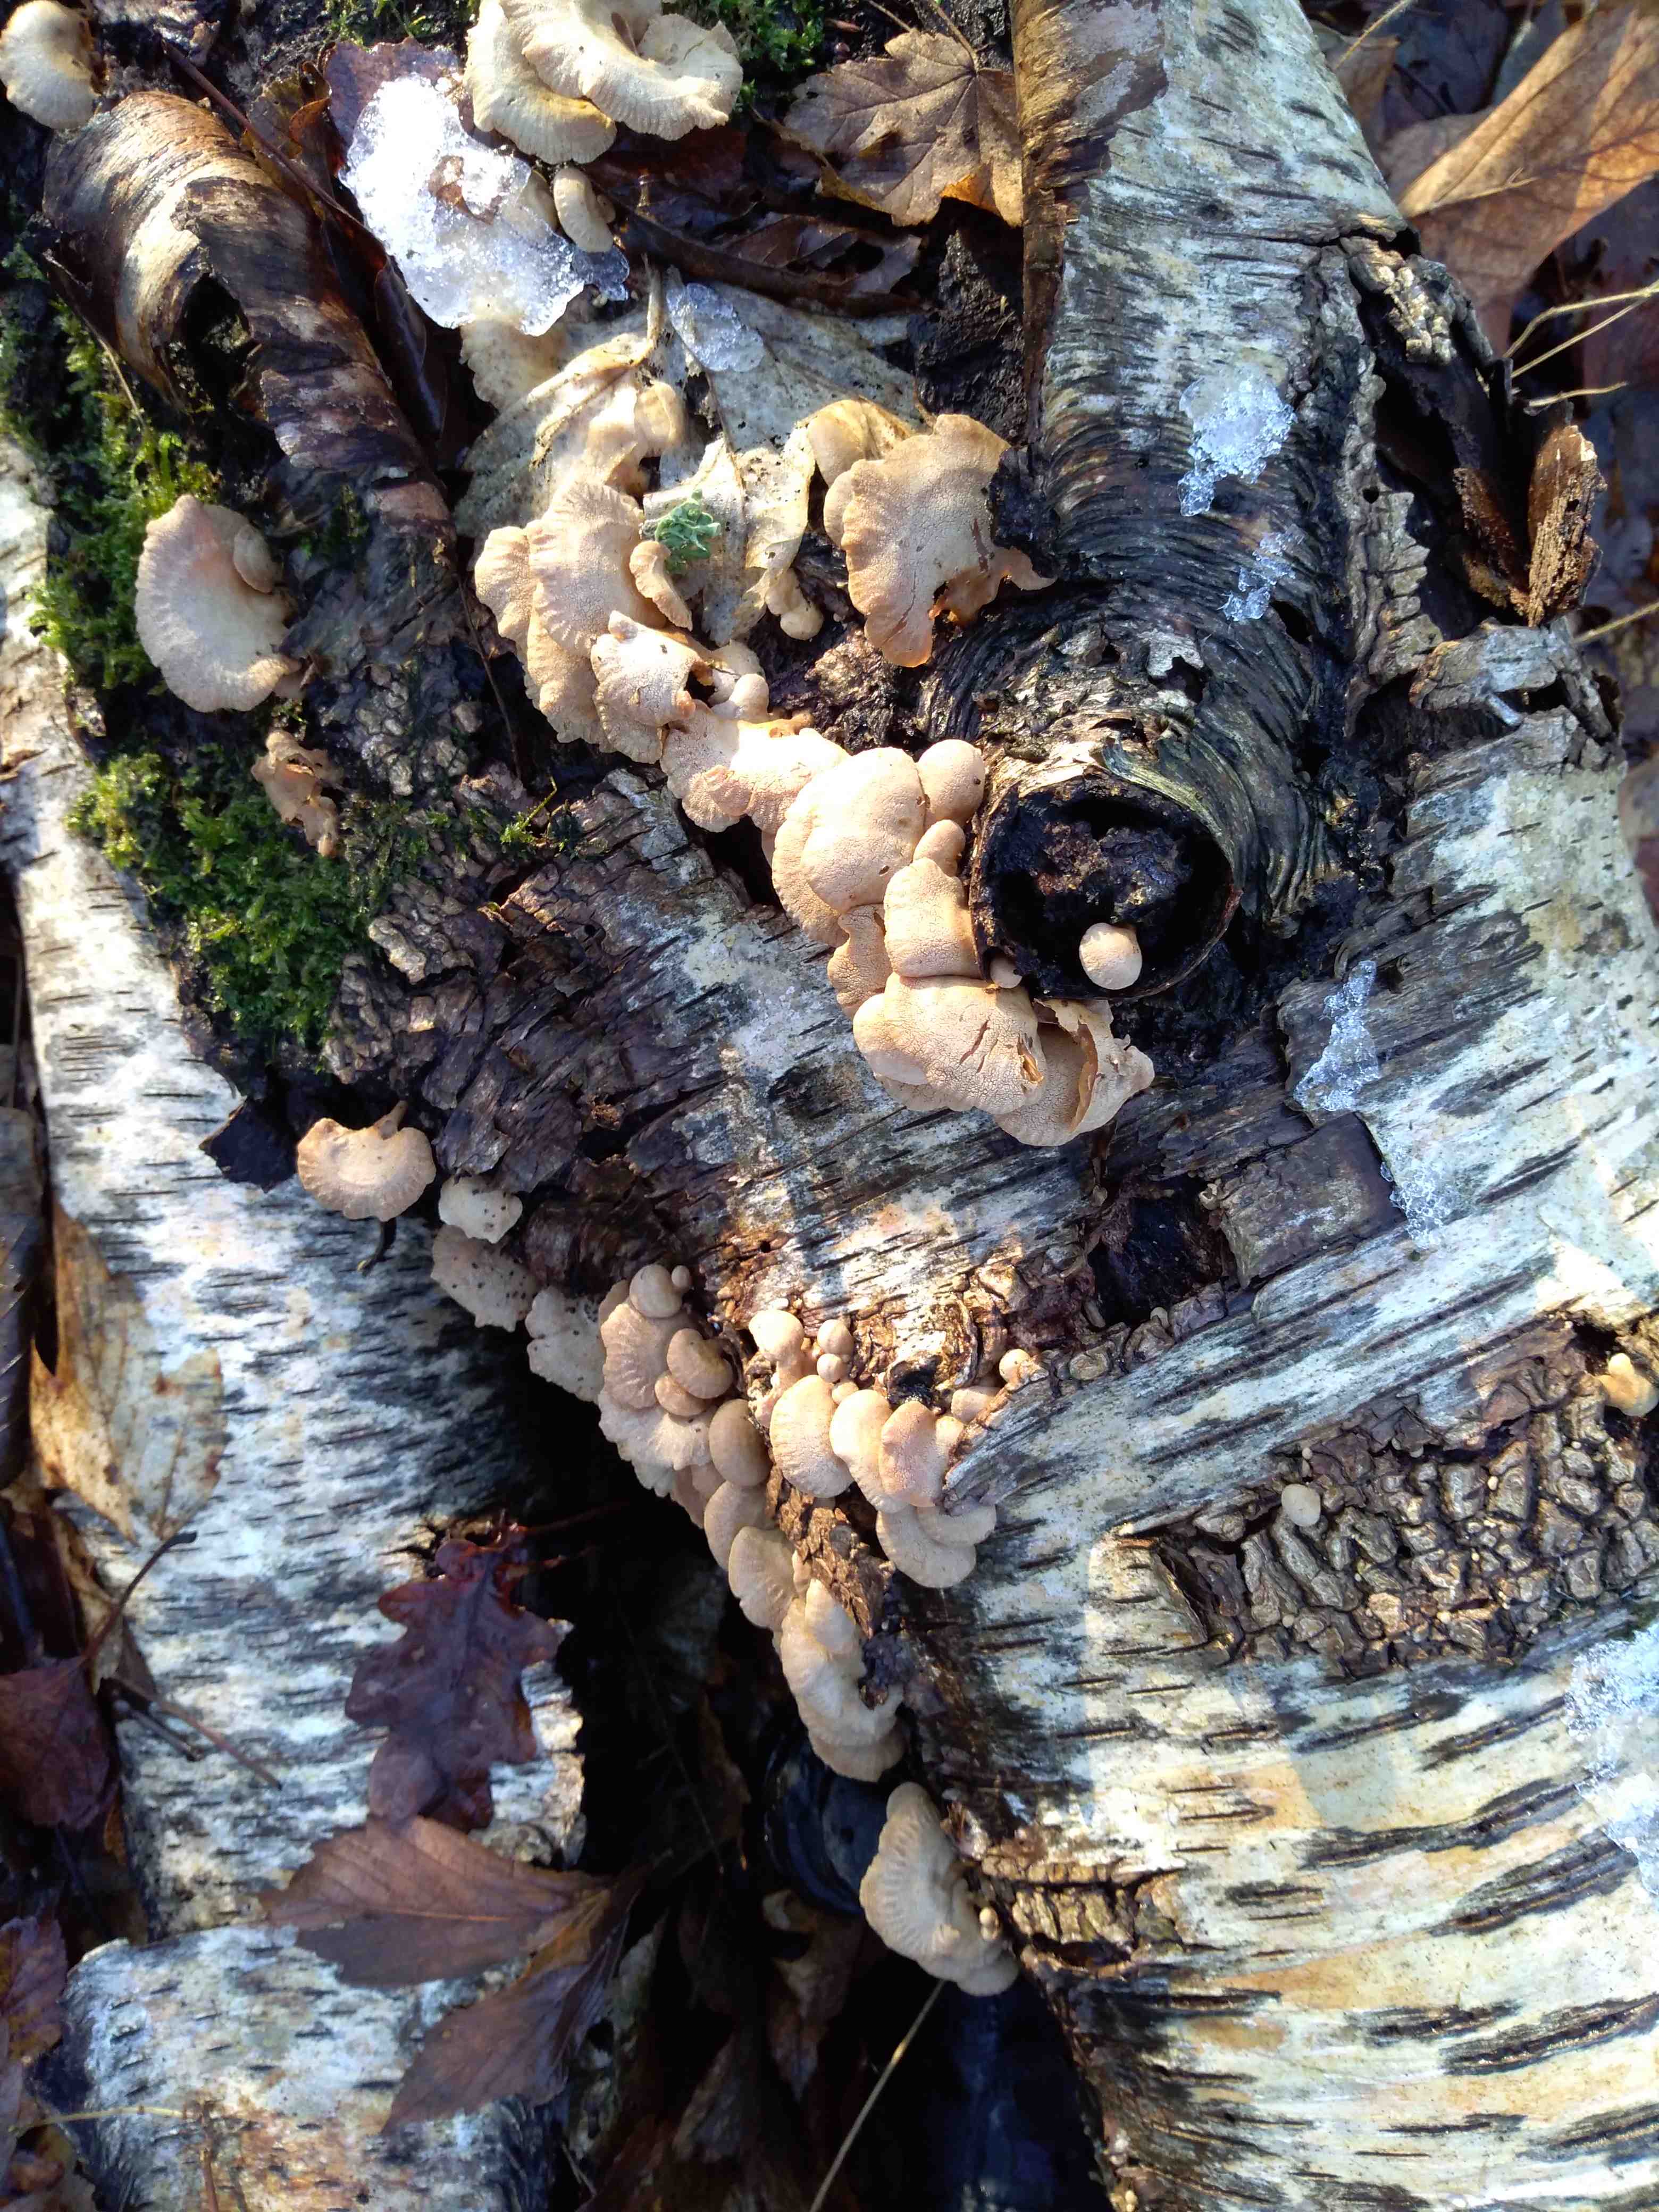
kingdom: Fungi
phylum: Basidiomycota
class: Agaricomycetes
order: Agaricales
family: Mycenaceae
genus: Panellus
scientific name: Panellus stipticus
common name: kliddet epaulethat
